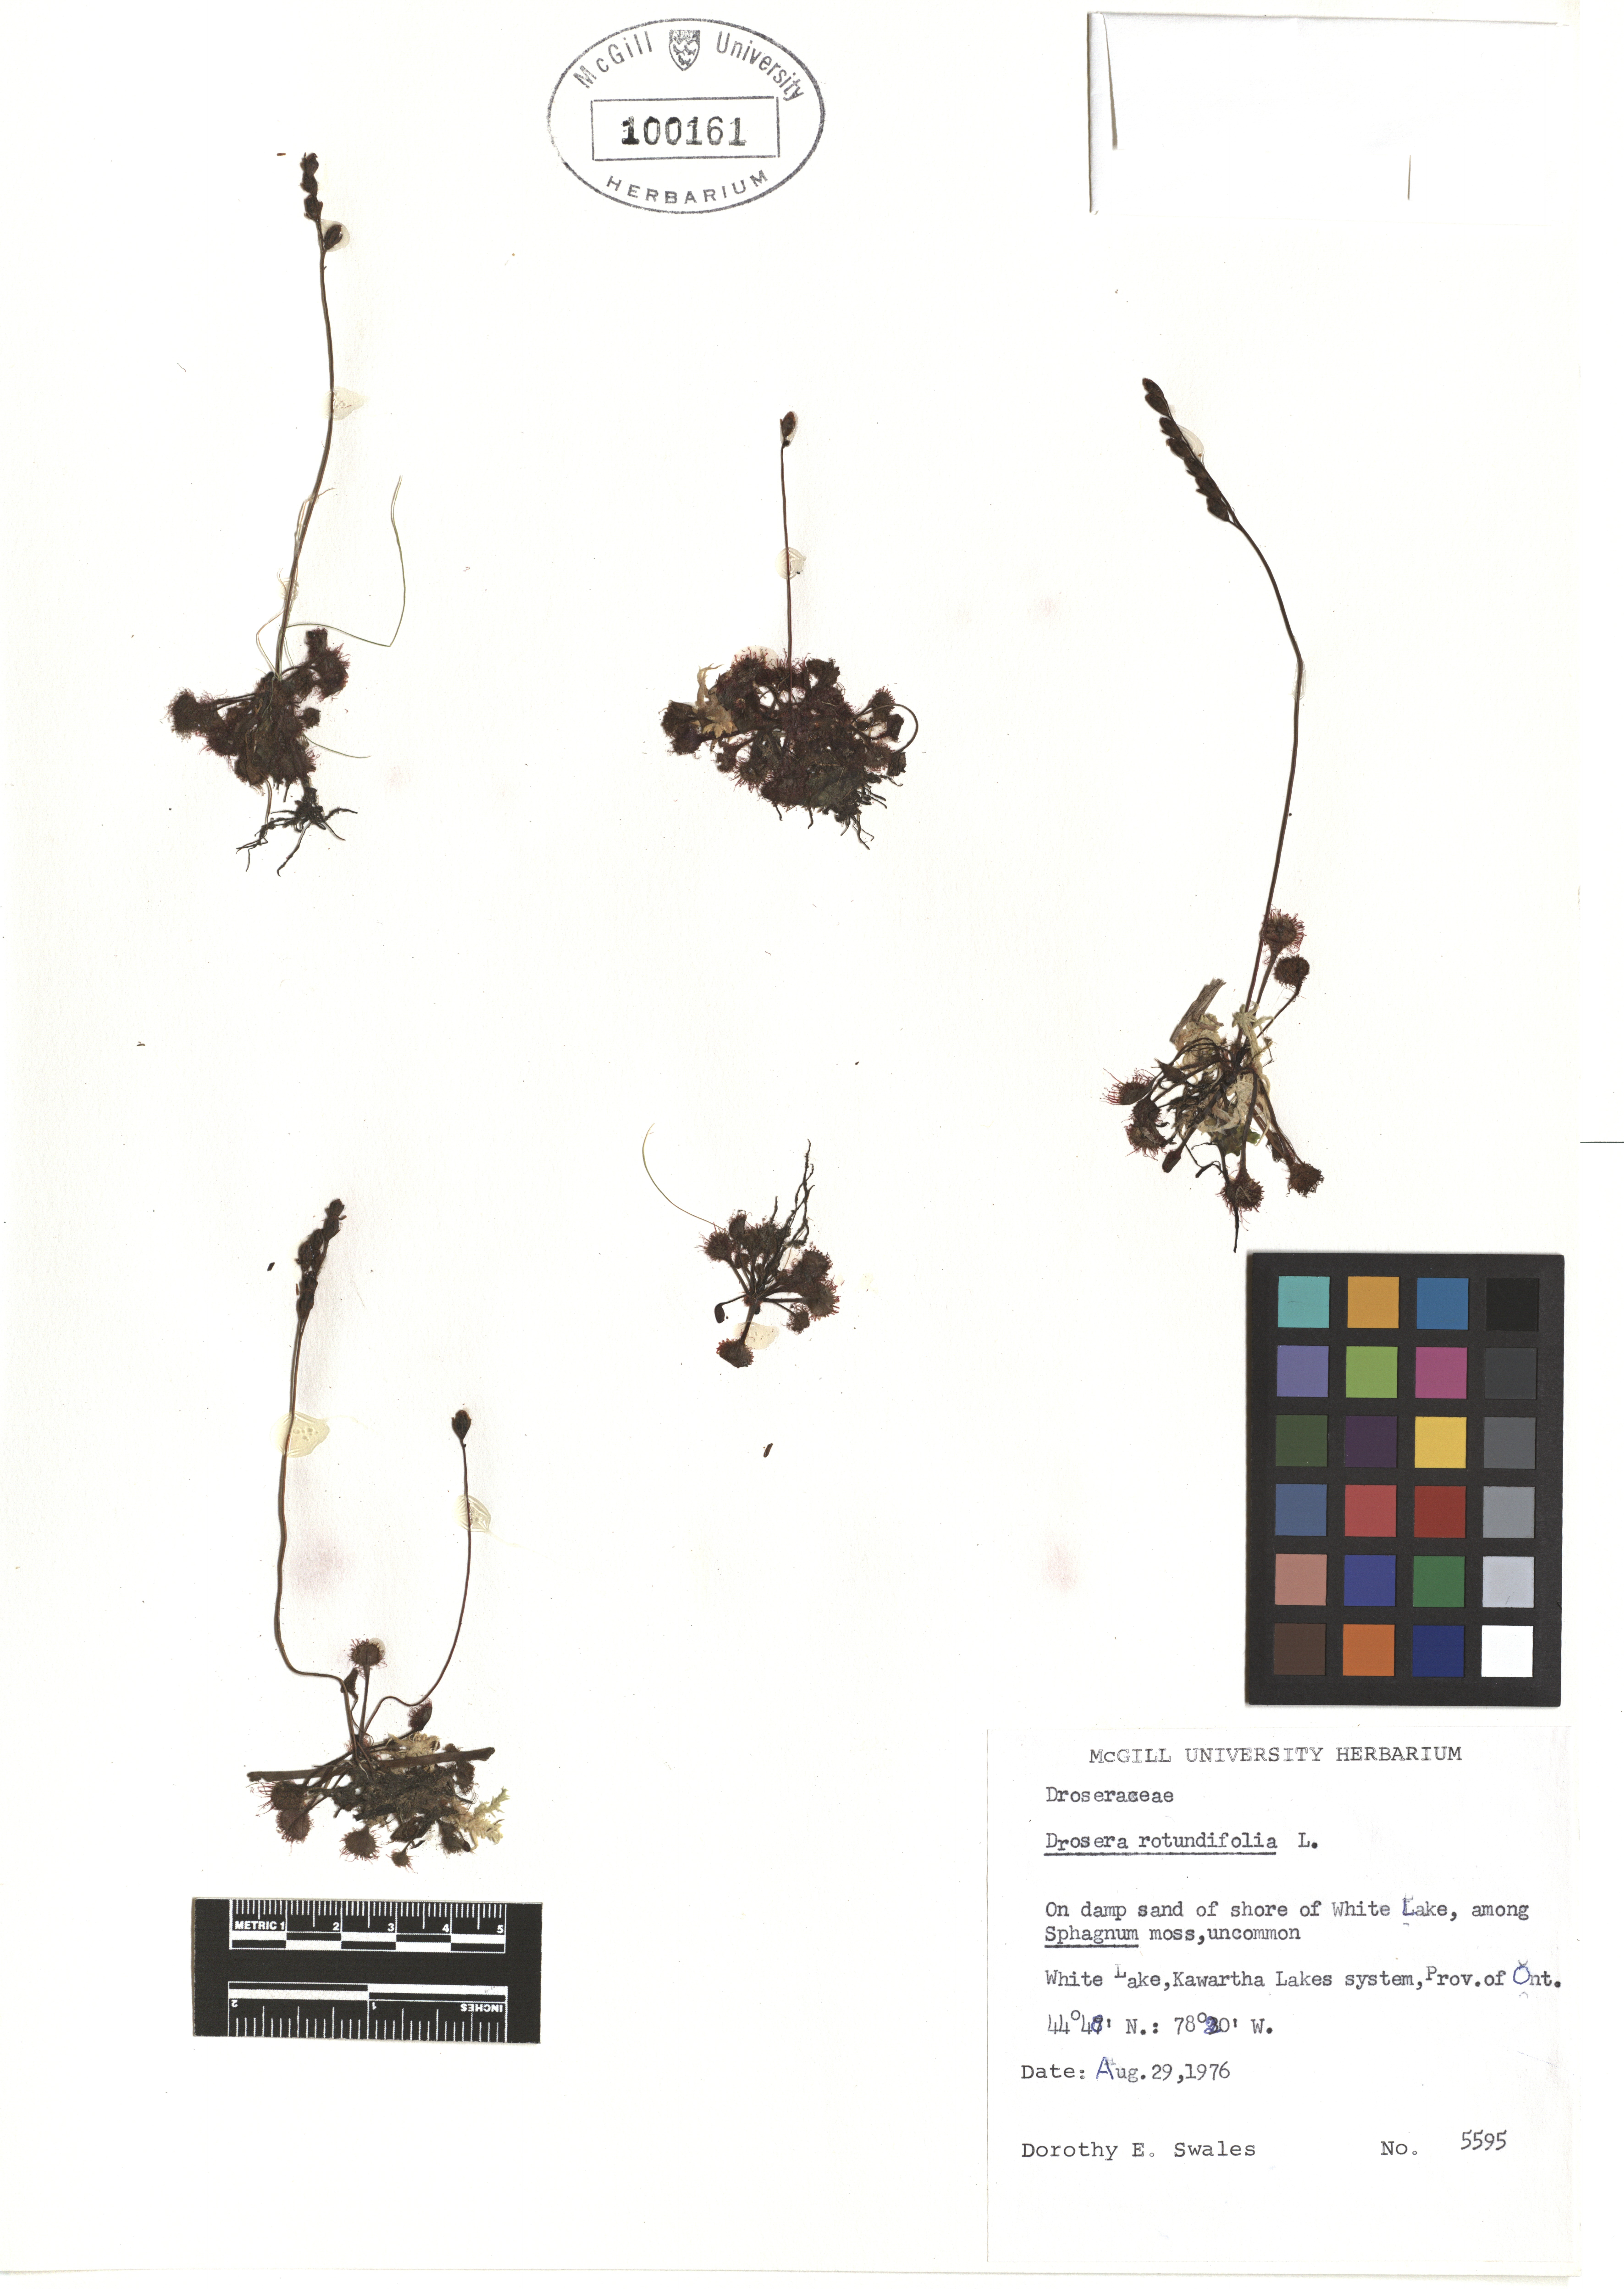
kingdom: Plantae
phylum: Tracheophyta
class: Magnoliopsida
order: Caryophyllales
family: Droseraceae
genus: Drosera
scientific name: Drosera rotundifolia
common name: Round-leaved sundew
